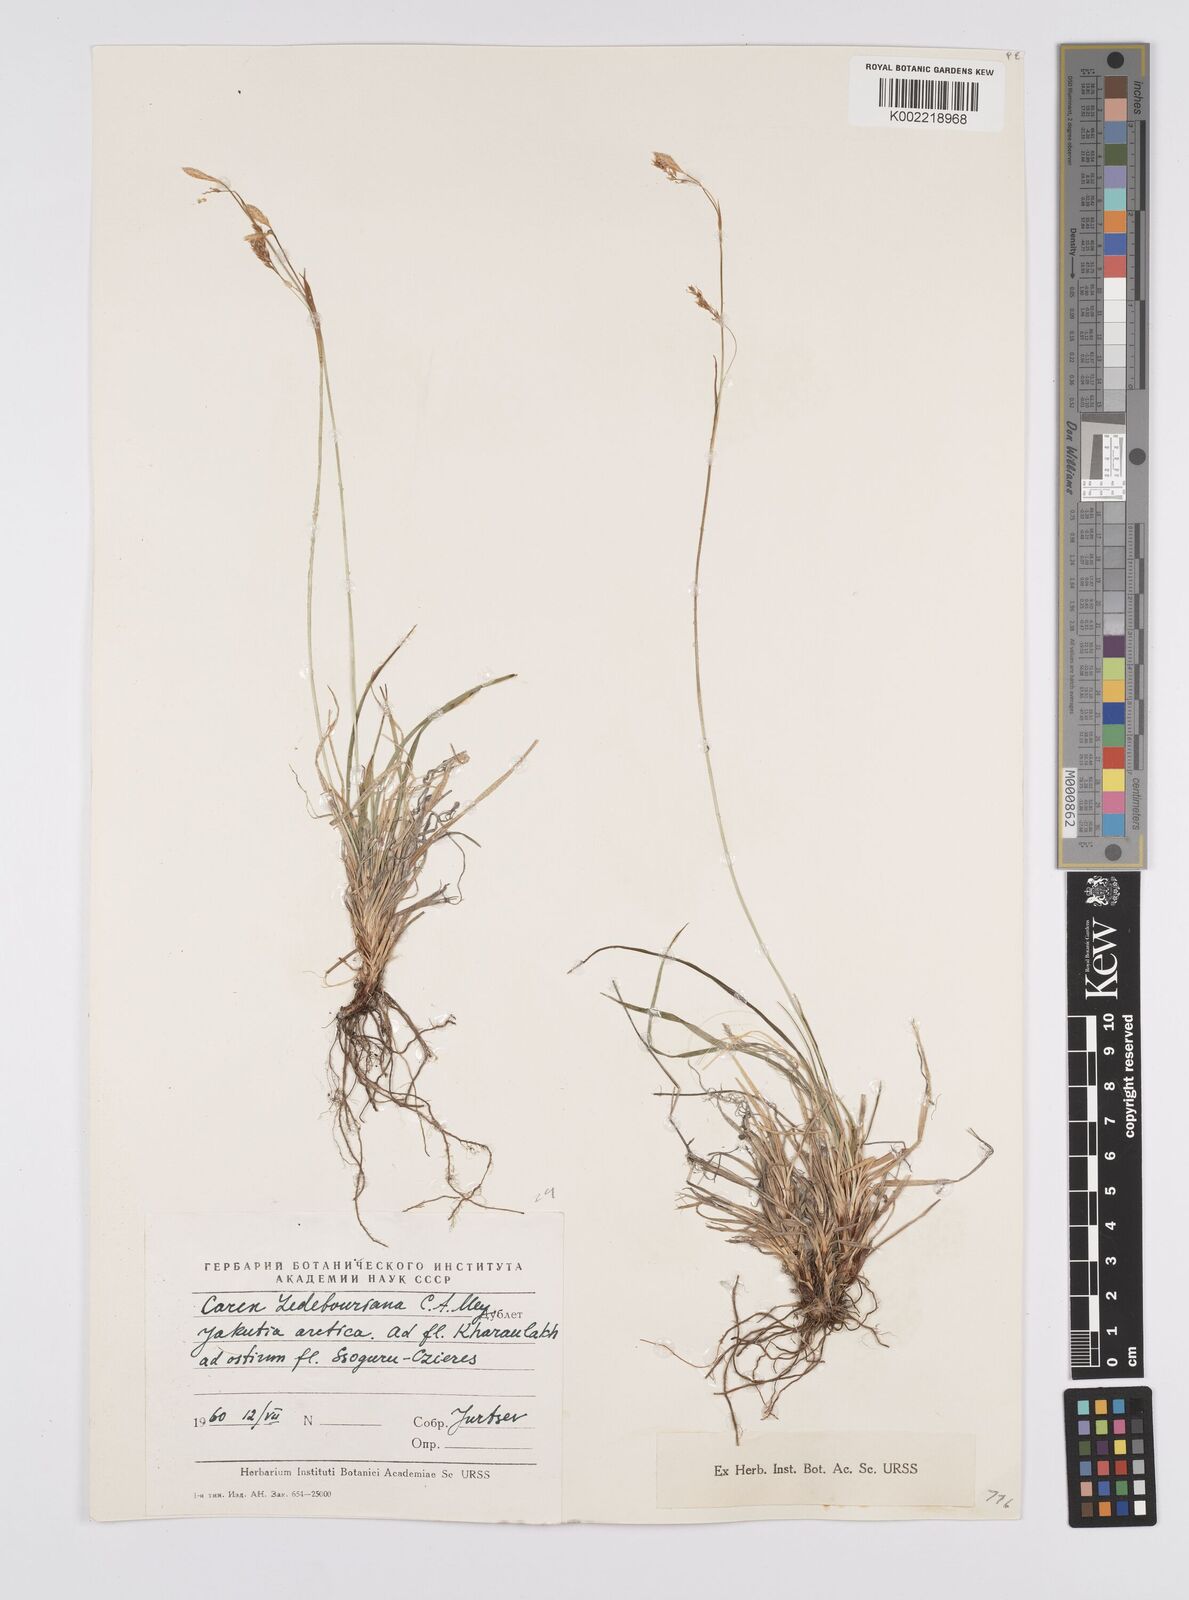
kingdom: Plantae
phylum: Tracheophyta
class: Liliopsida
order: Poales
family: Cyperaceae
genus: Carex
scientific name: Carex melanostachya
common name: Black-spiked sedge
